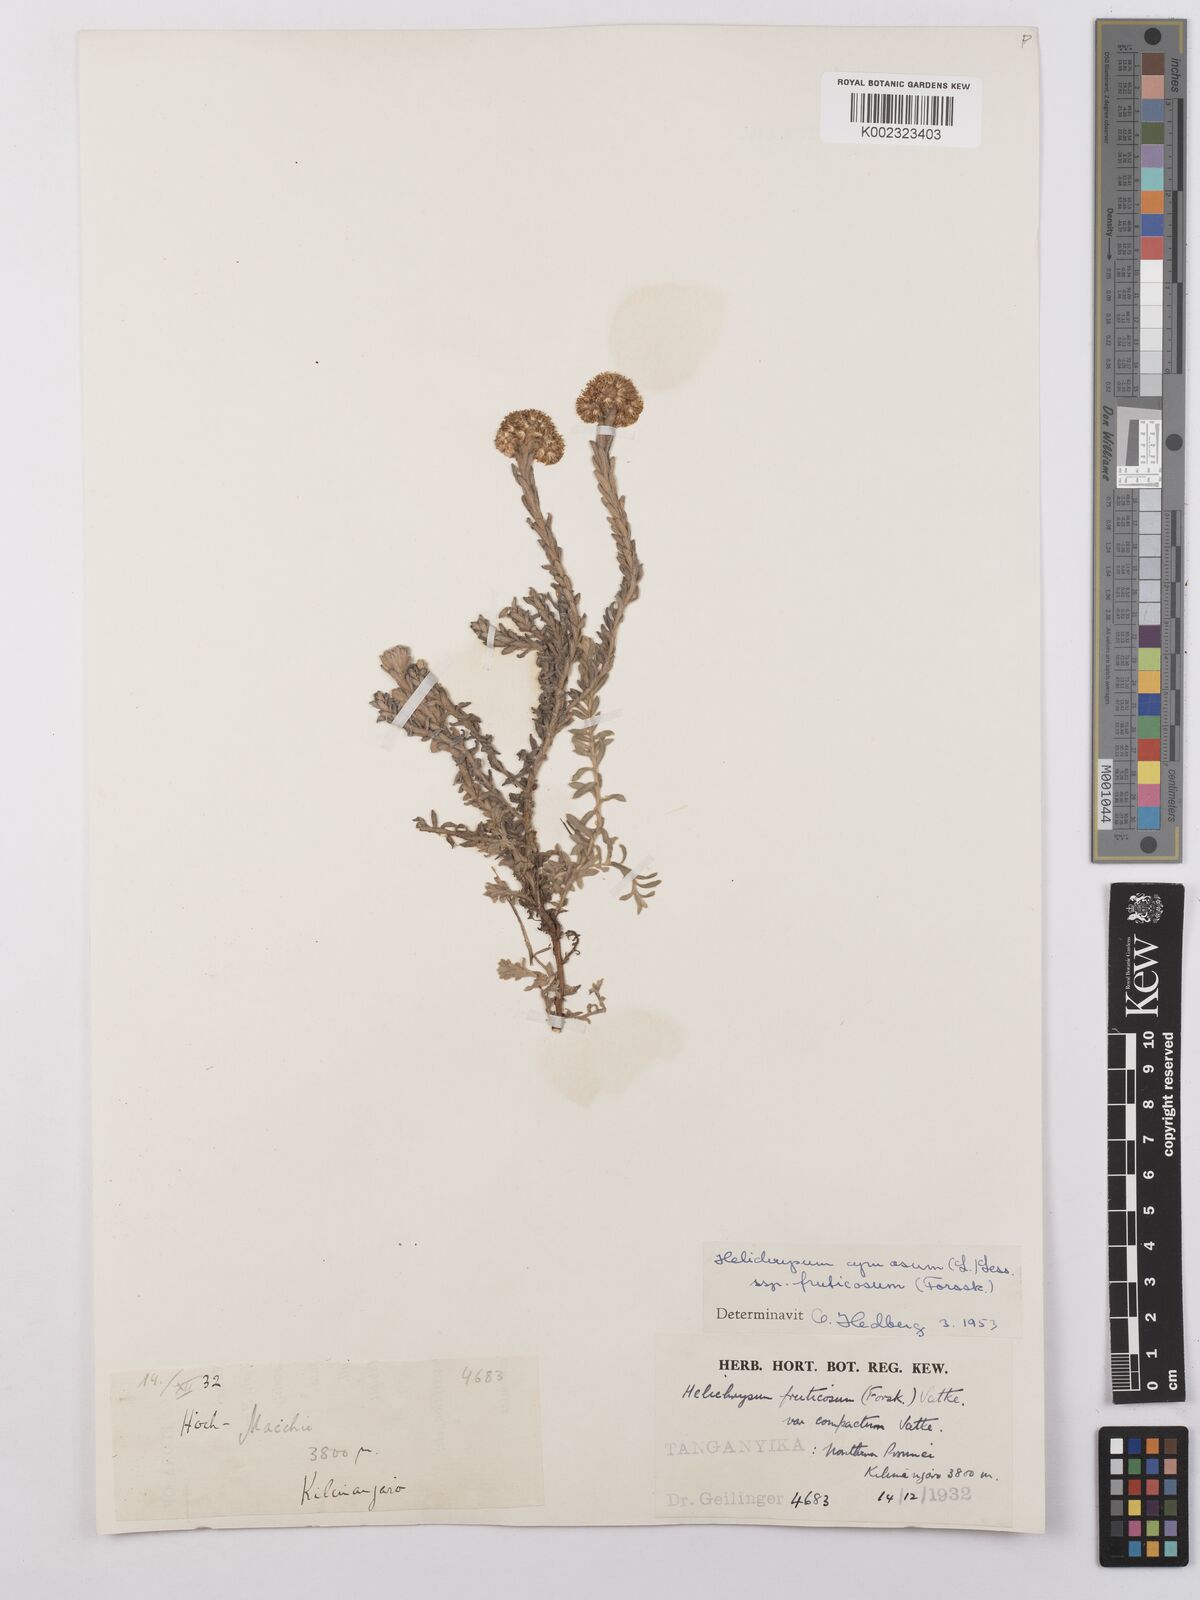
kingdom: Plantae
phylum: Tracheophyta
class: Magnoliopsida
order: Asterales
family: Asteraceae
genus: Helichrysum
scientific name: Helichrysum forskahlii
